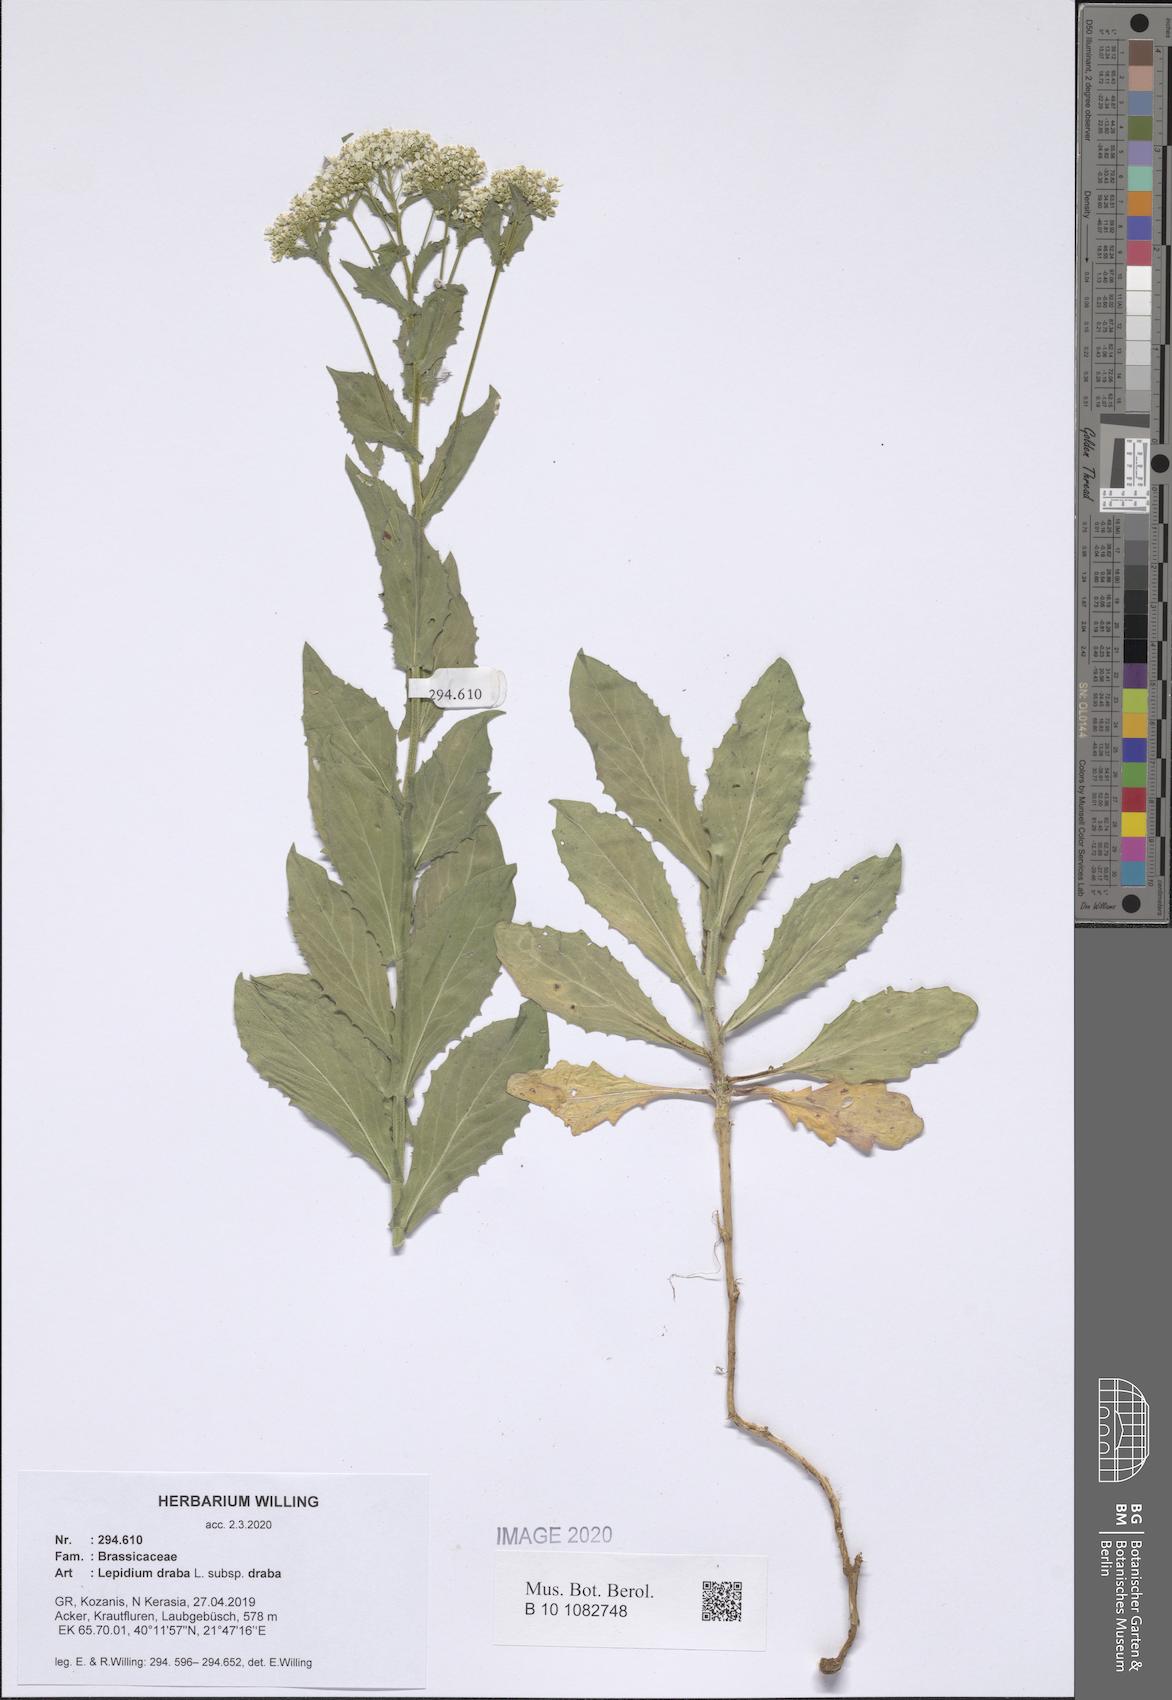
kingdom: Plantae
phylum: Tracheophyta
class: Magnoliopsida
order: Brassicales
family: Brassicaceae
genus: Lepidium
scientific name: Lepidium draba
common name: Hoary cress
